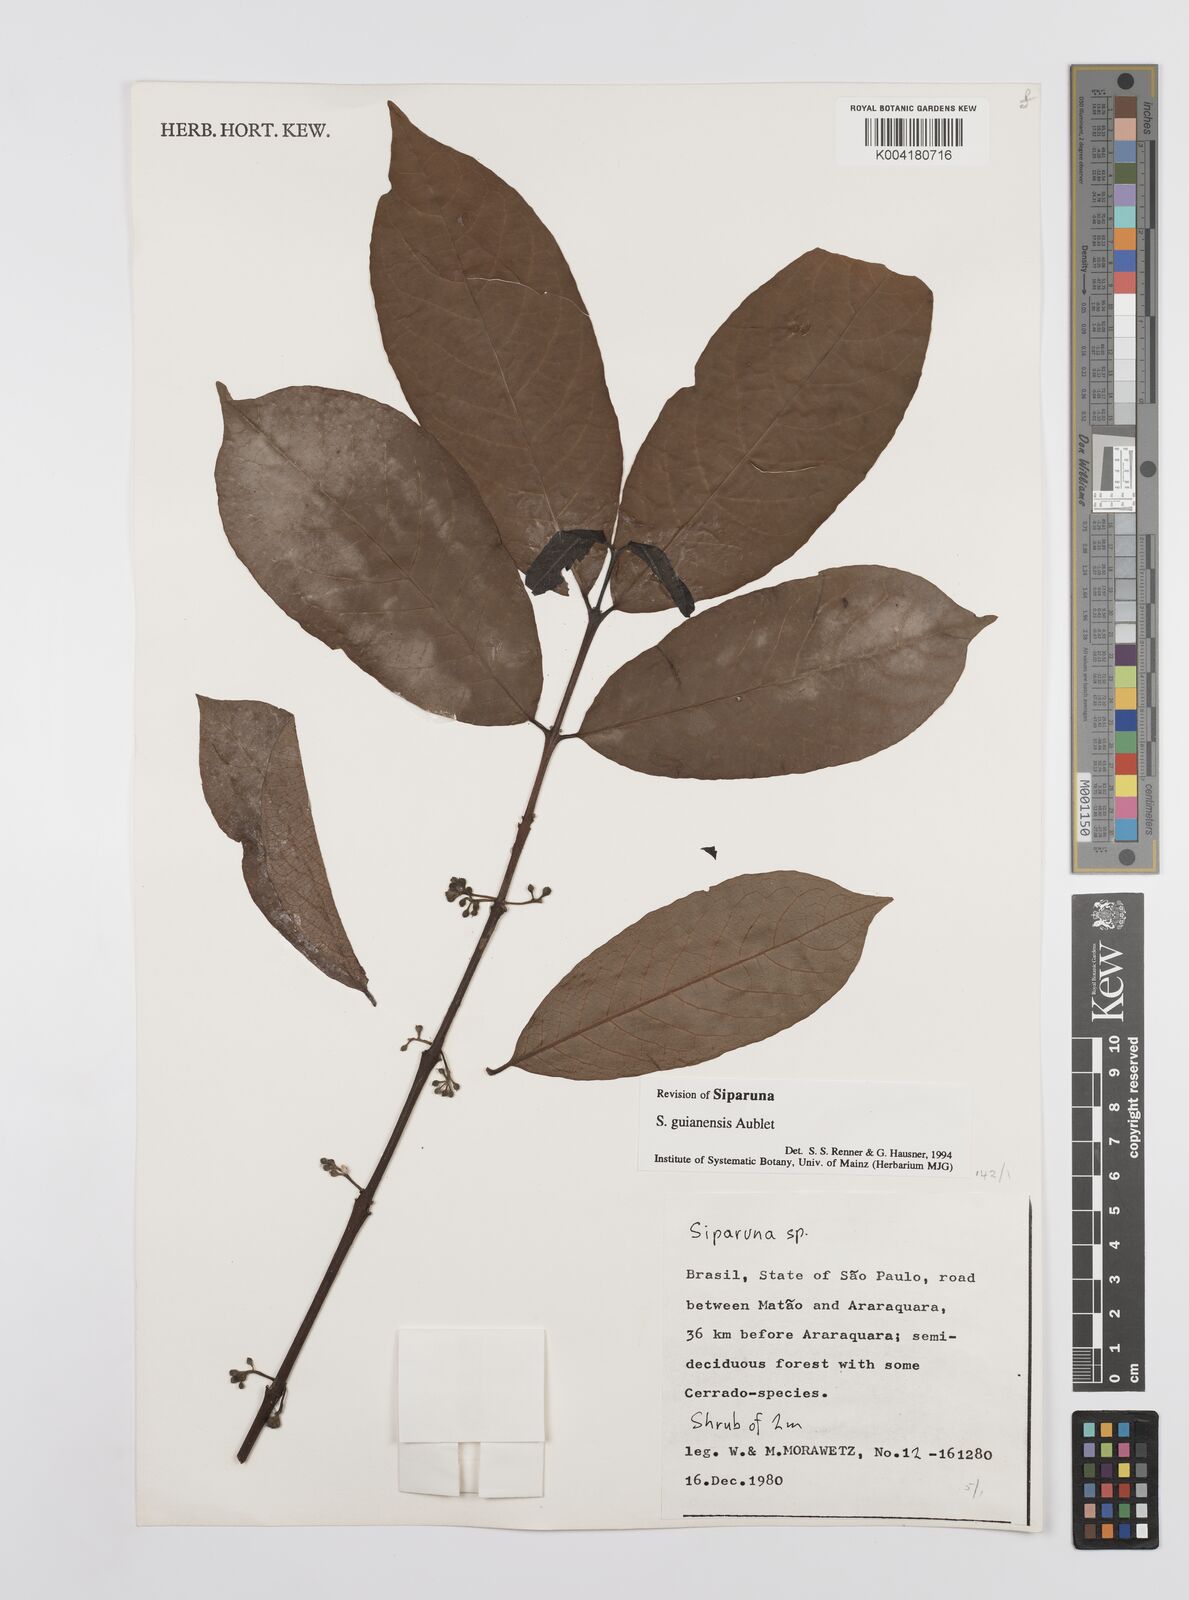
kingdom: Plantae
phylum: Tracheophyta
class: Magnoliopsida
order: Laurales
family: Siparunaceae
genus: Siparuna
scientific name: Siparuna guianensis
